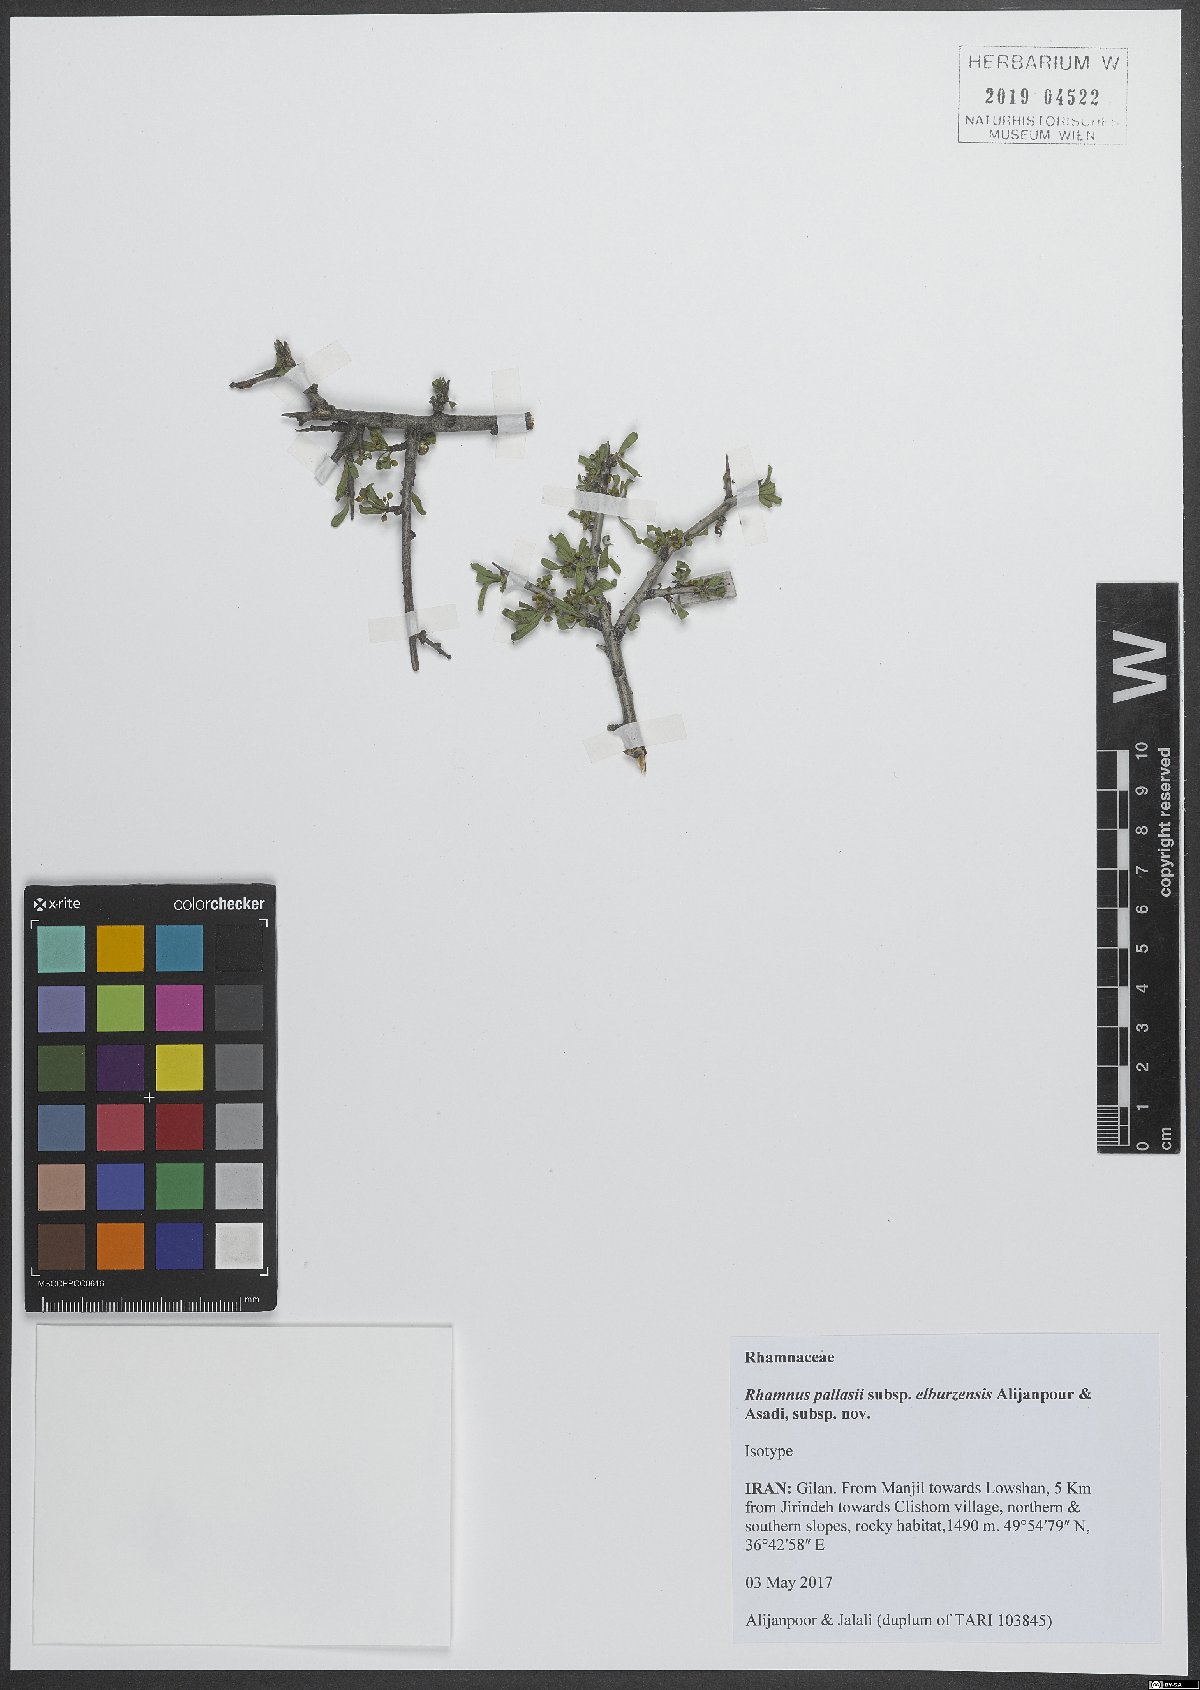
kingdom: Plantae
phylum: Tracheophyta
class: Magnoliopsida
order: Rosales
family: Rhamnaceae
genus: Rhamnus
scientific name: Rhamnus erythroxyloides
